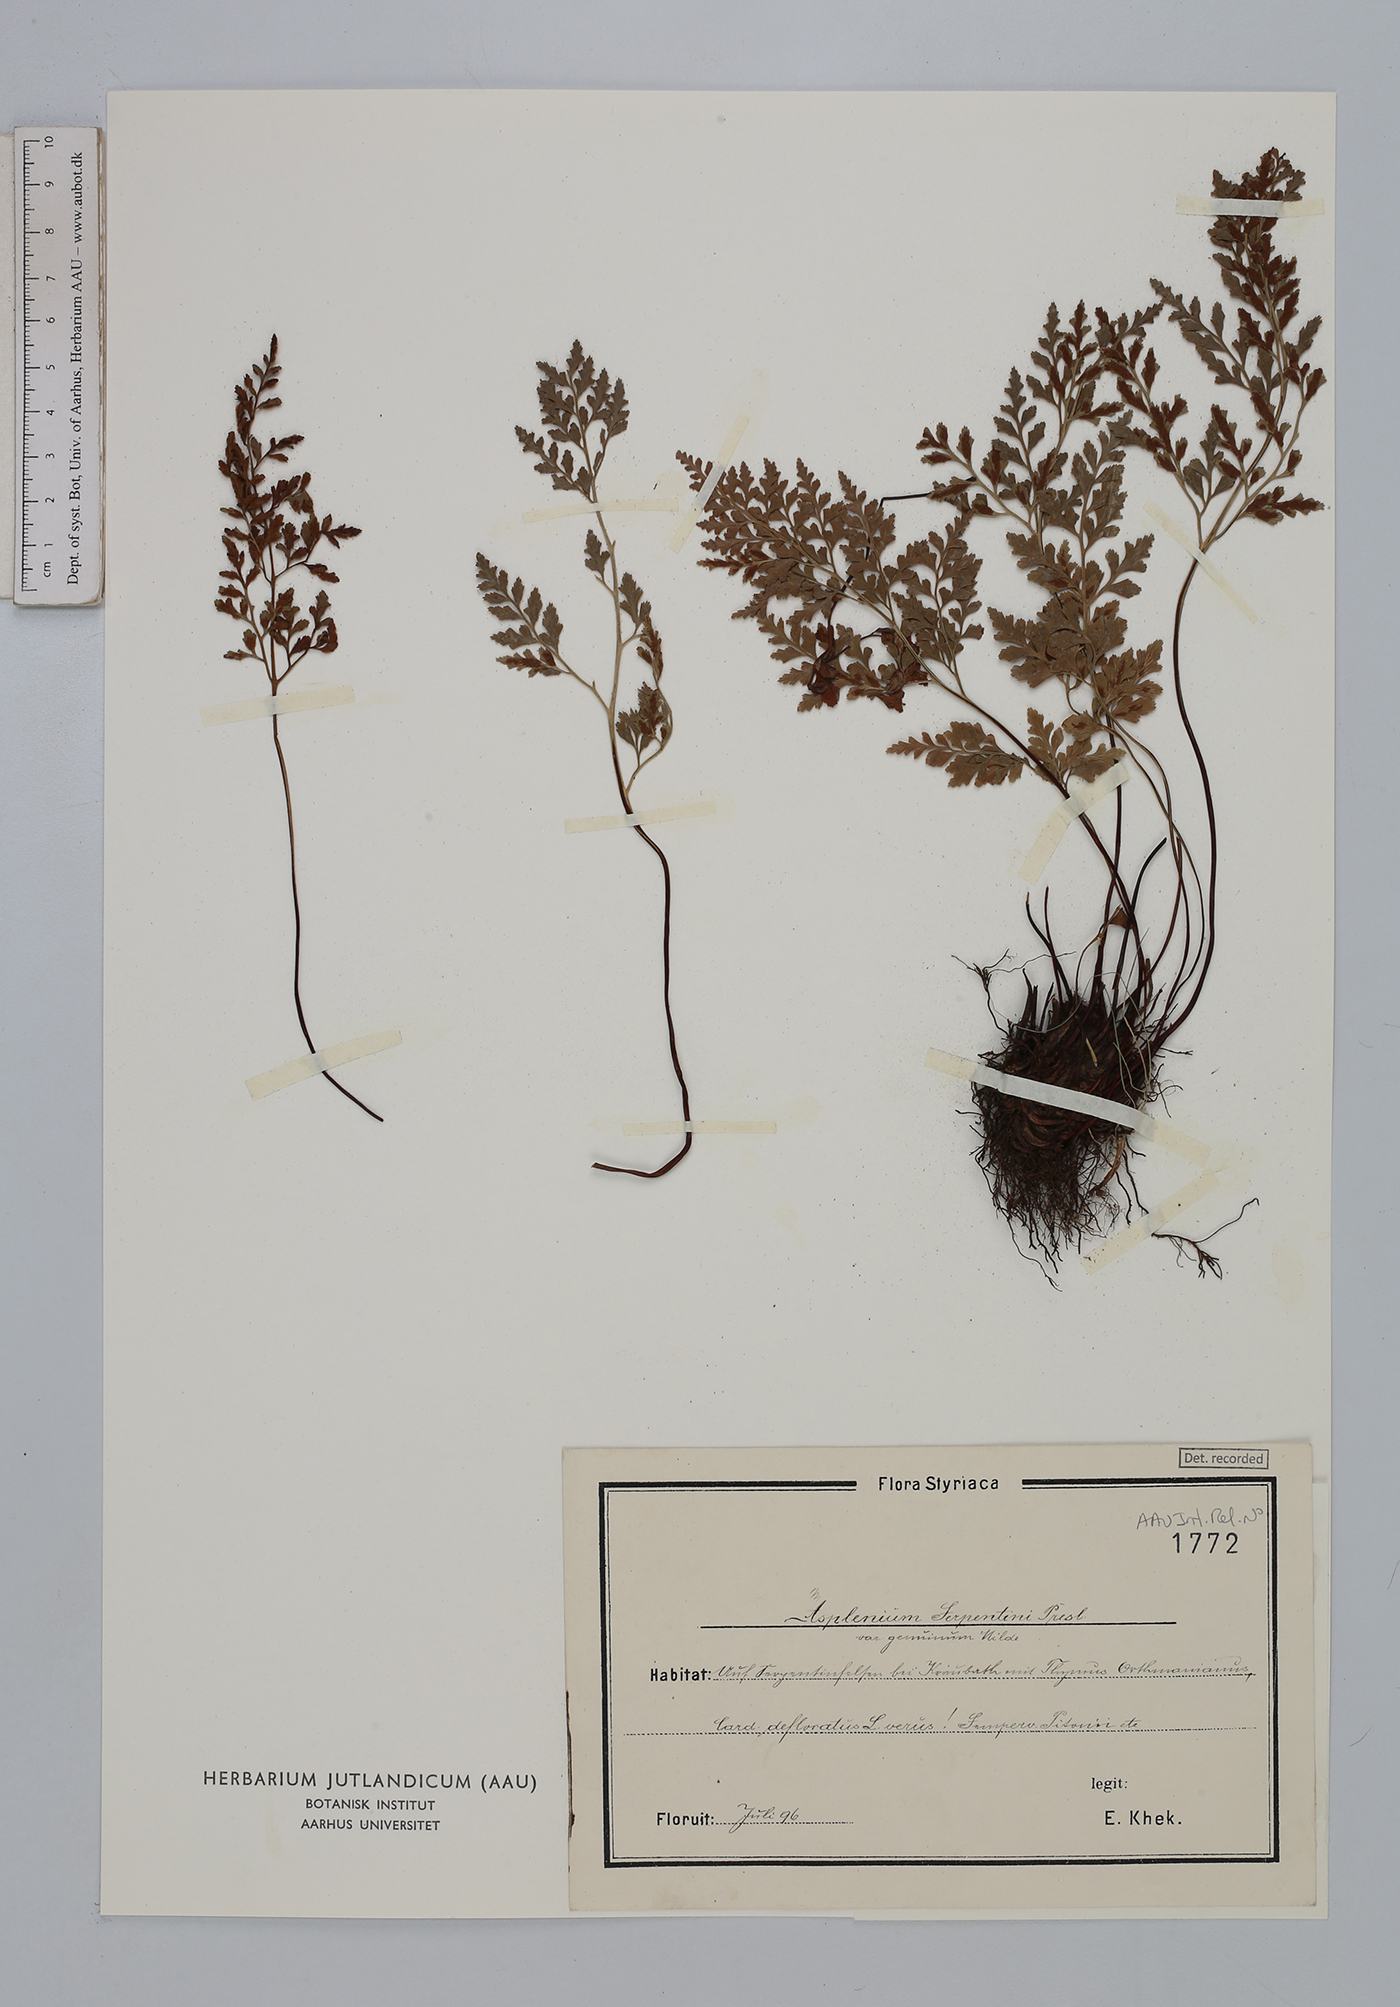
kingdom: Plantae
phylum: Tracheophyta
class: Polypodiopsida
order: Polypodiales
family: Aspleniaceae
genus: Asplenium
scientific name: Asplenium cuneifolium
